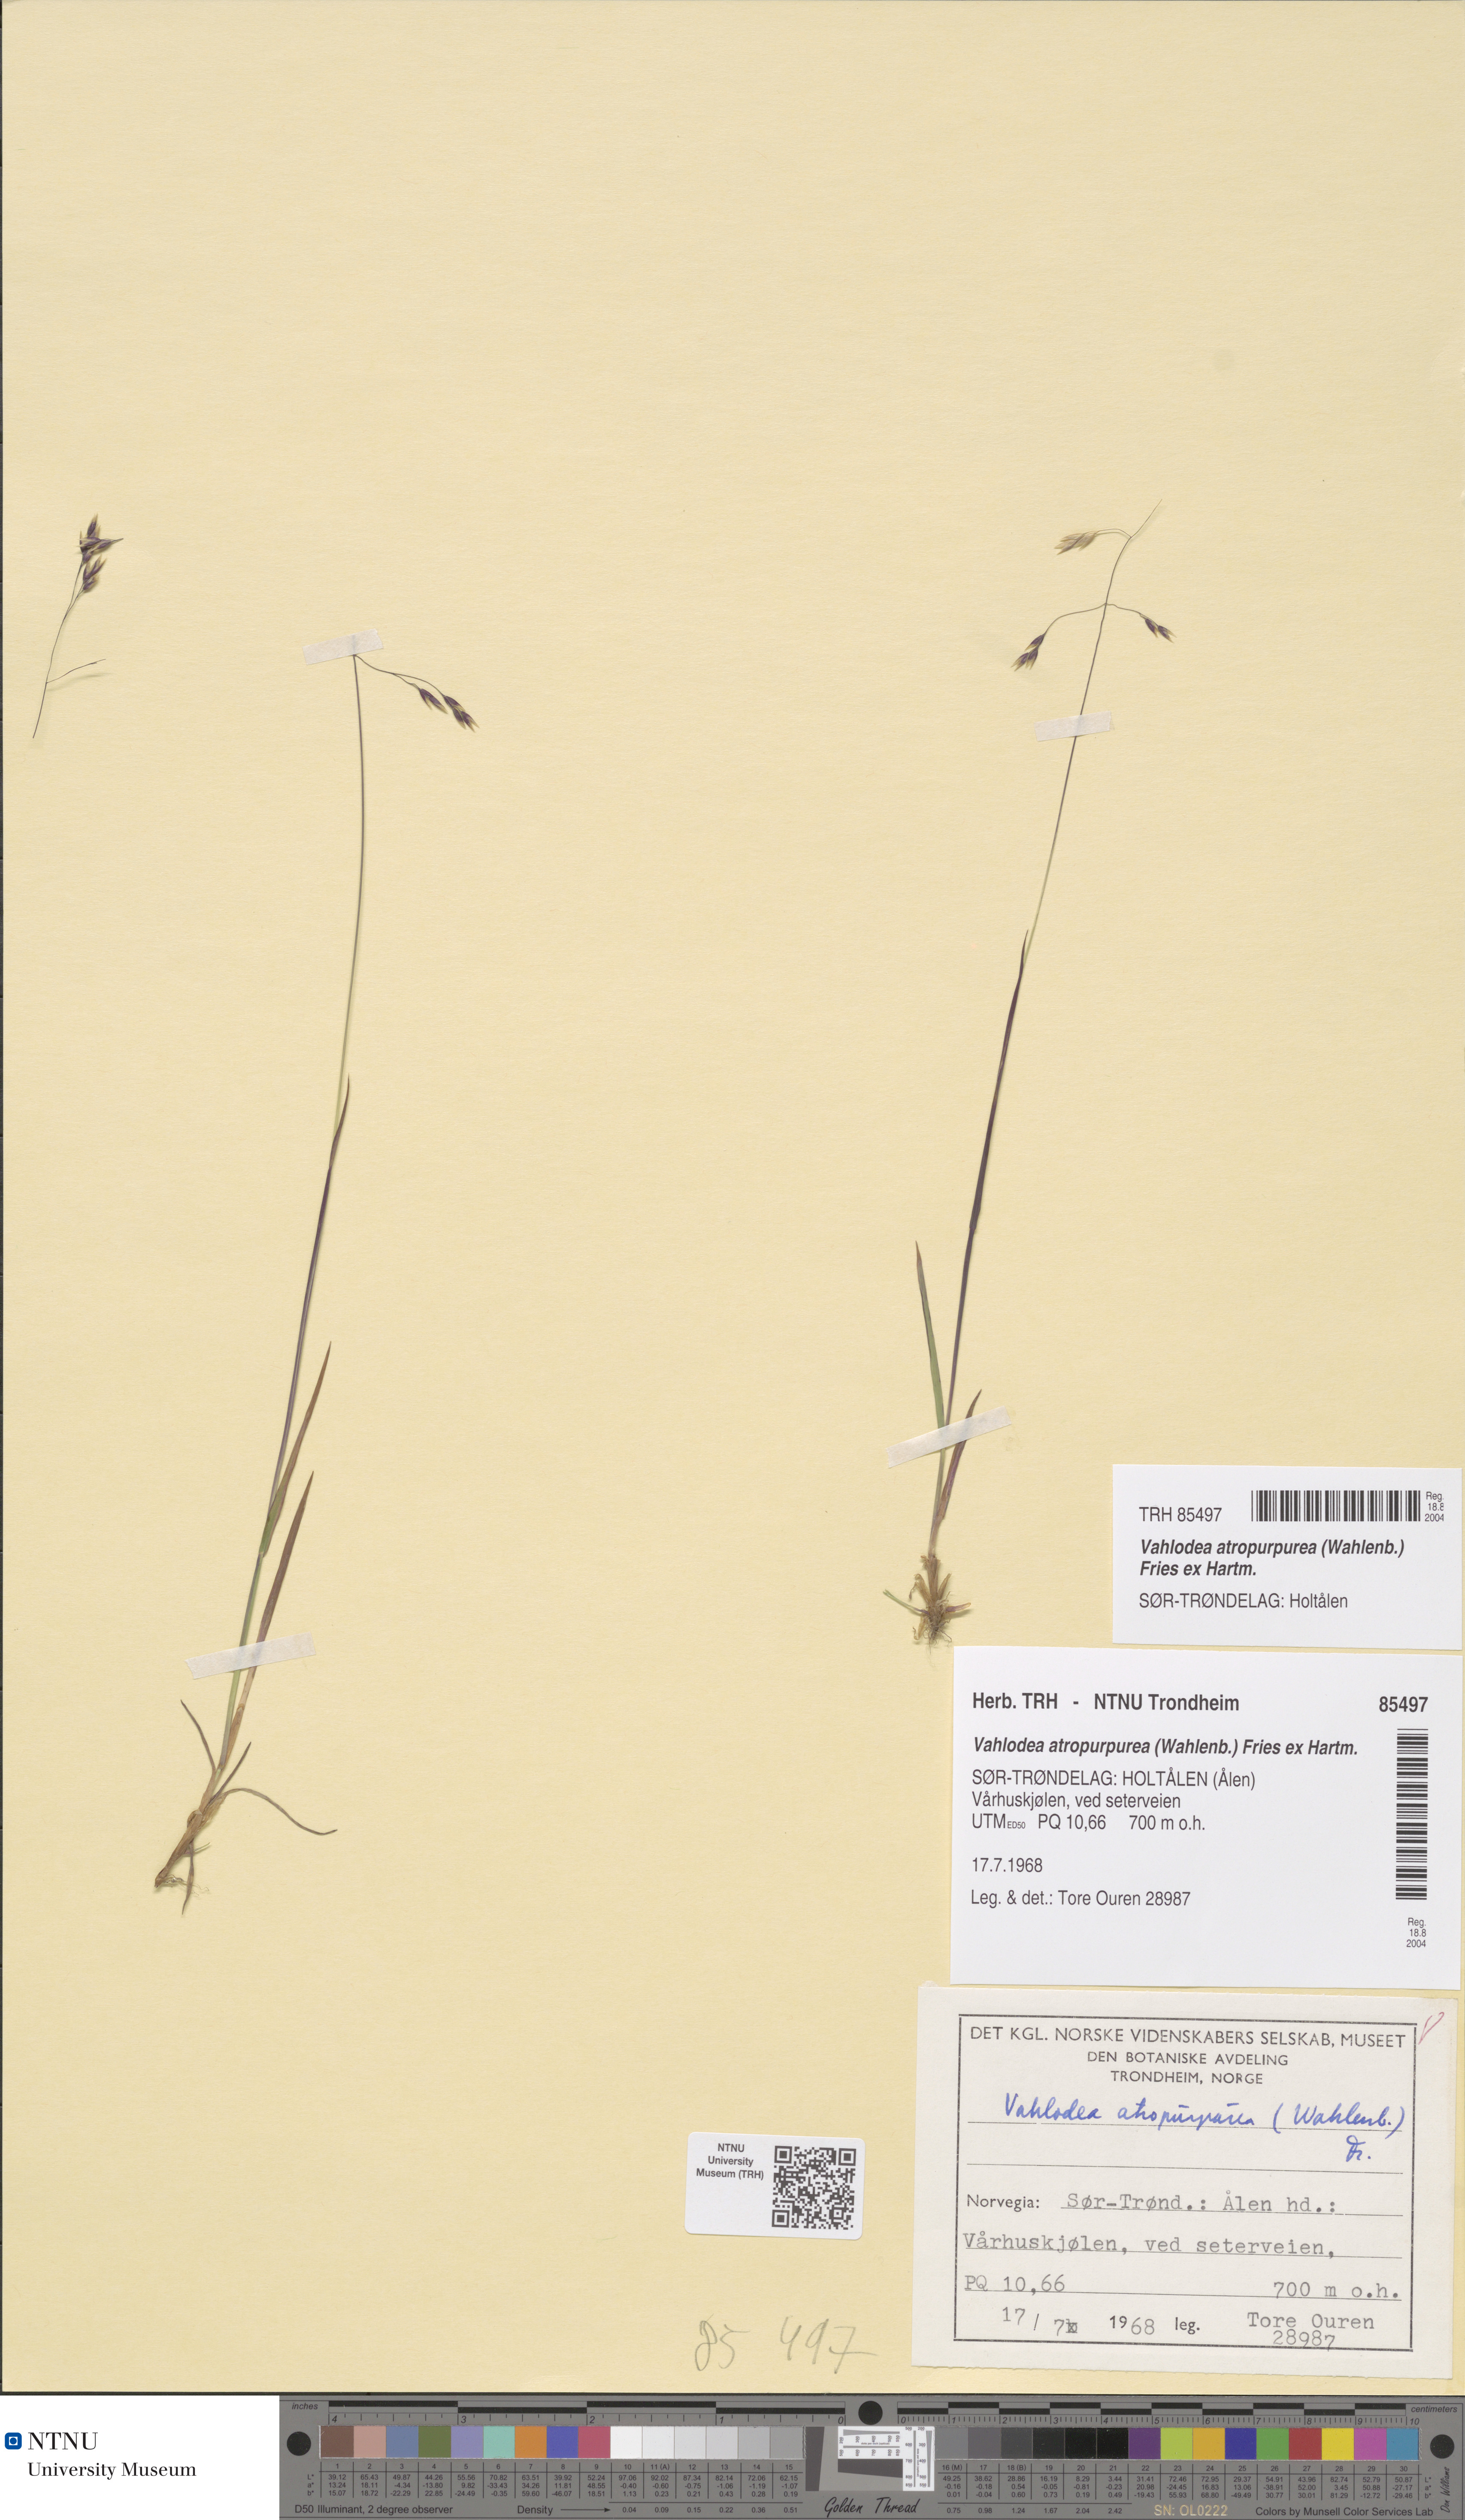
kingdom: Plantae
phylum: Tracheophyta
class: Liliopsida
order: Poales
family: Poaceae
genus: Vahlodea
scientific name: Vahlodea atropurpurea
